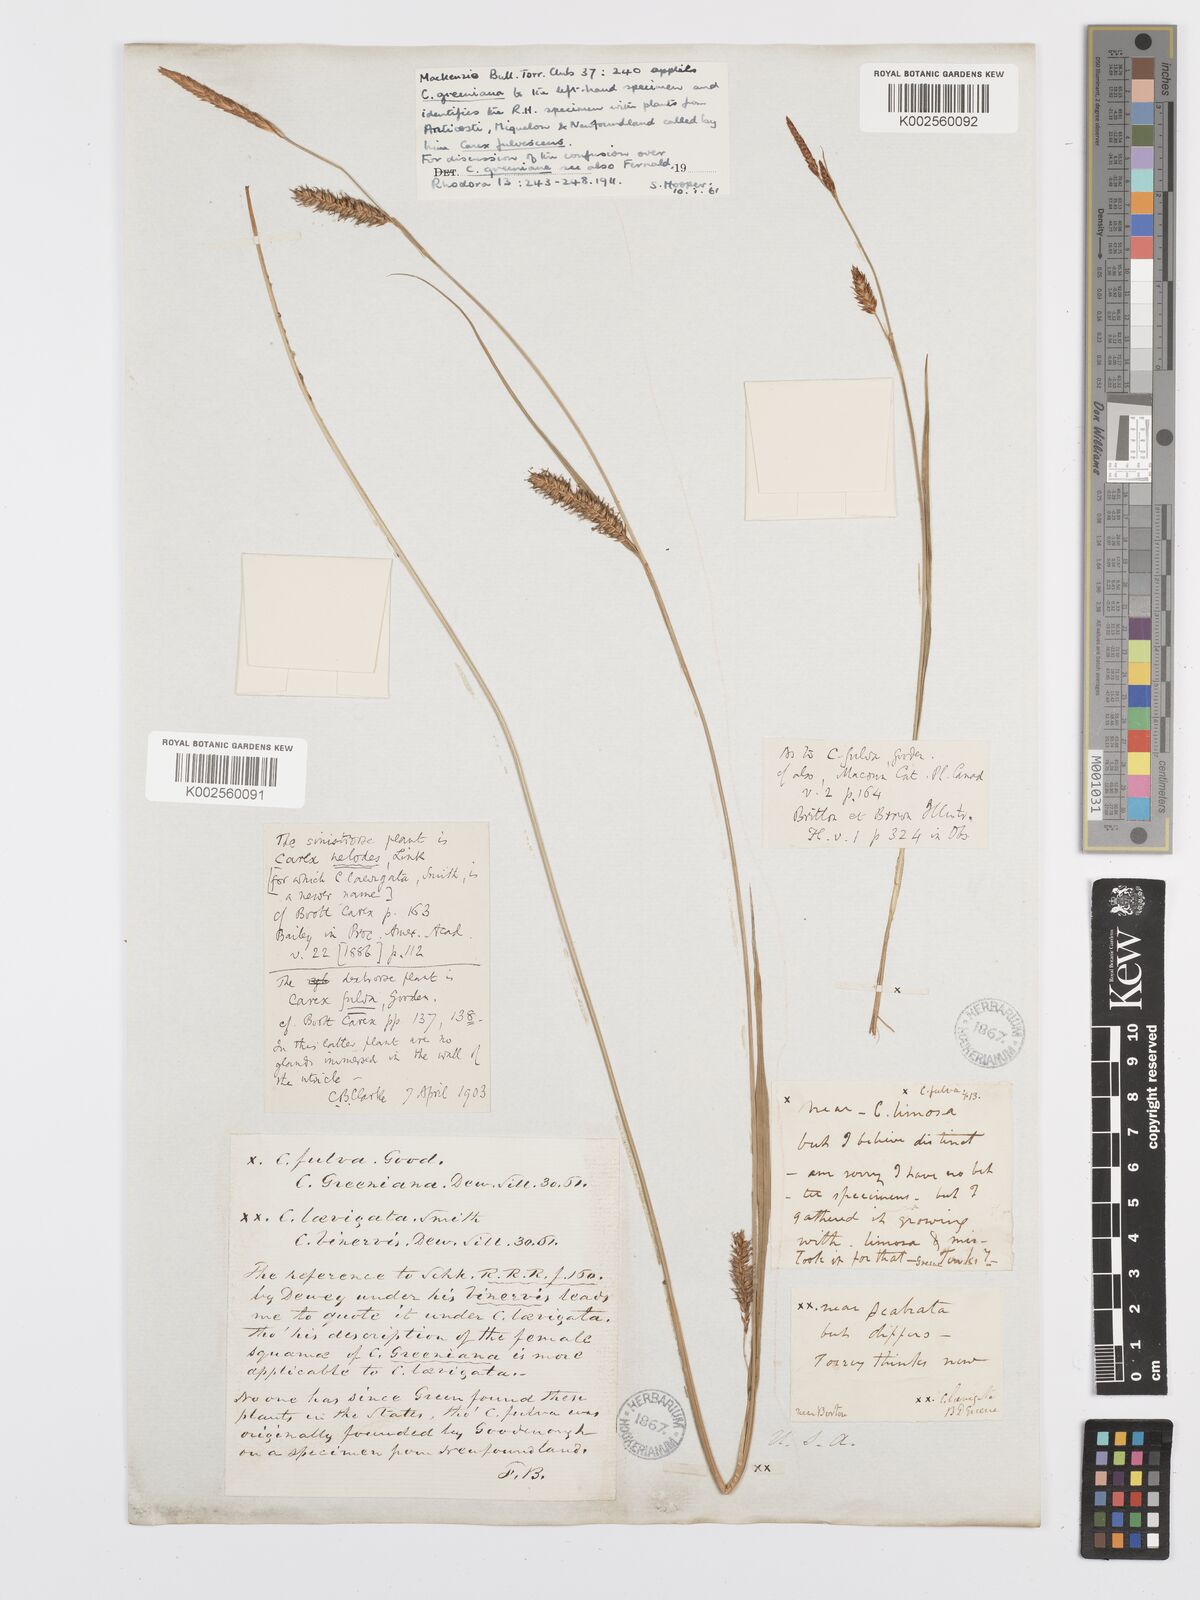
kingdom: Plantae
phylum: Tracheophyta
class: Liliopsida
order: Poales
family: Cyperaceae
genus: Carex
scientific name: Carex hostiana
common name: Tawny sedge
